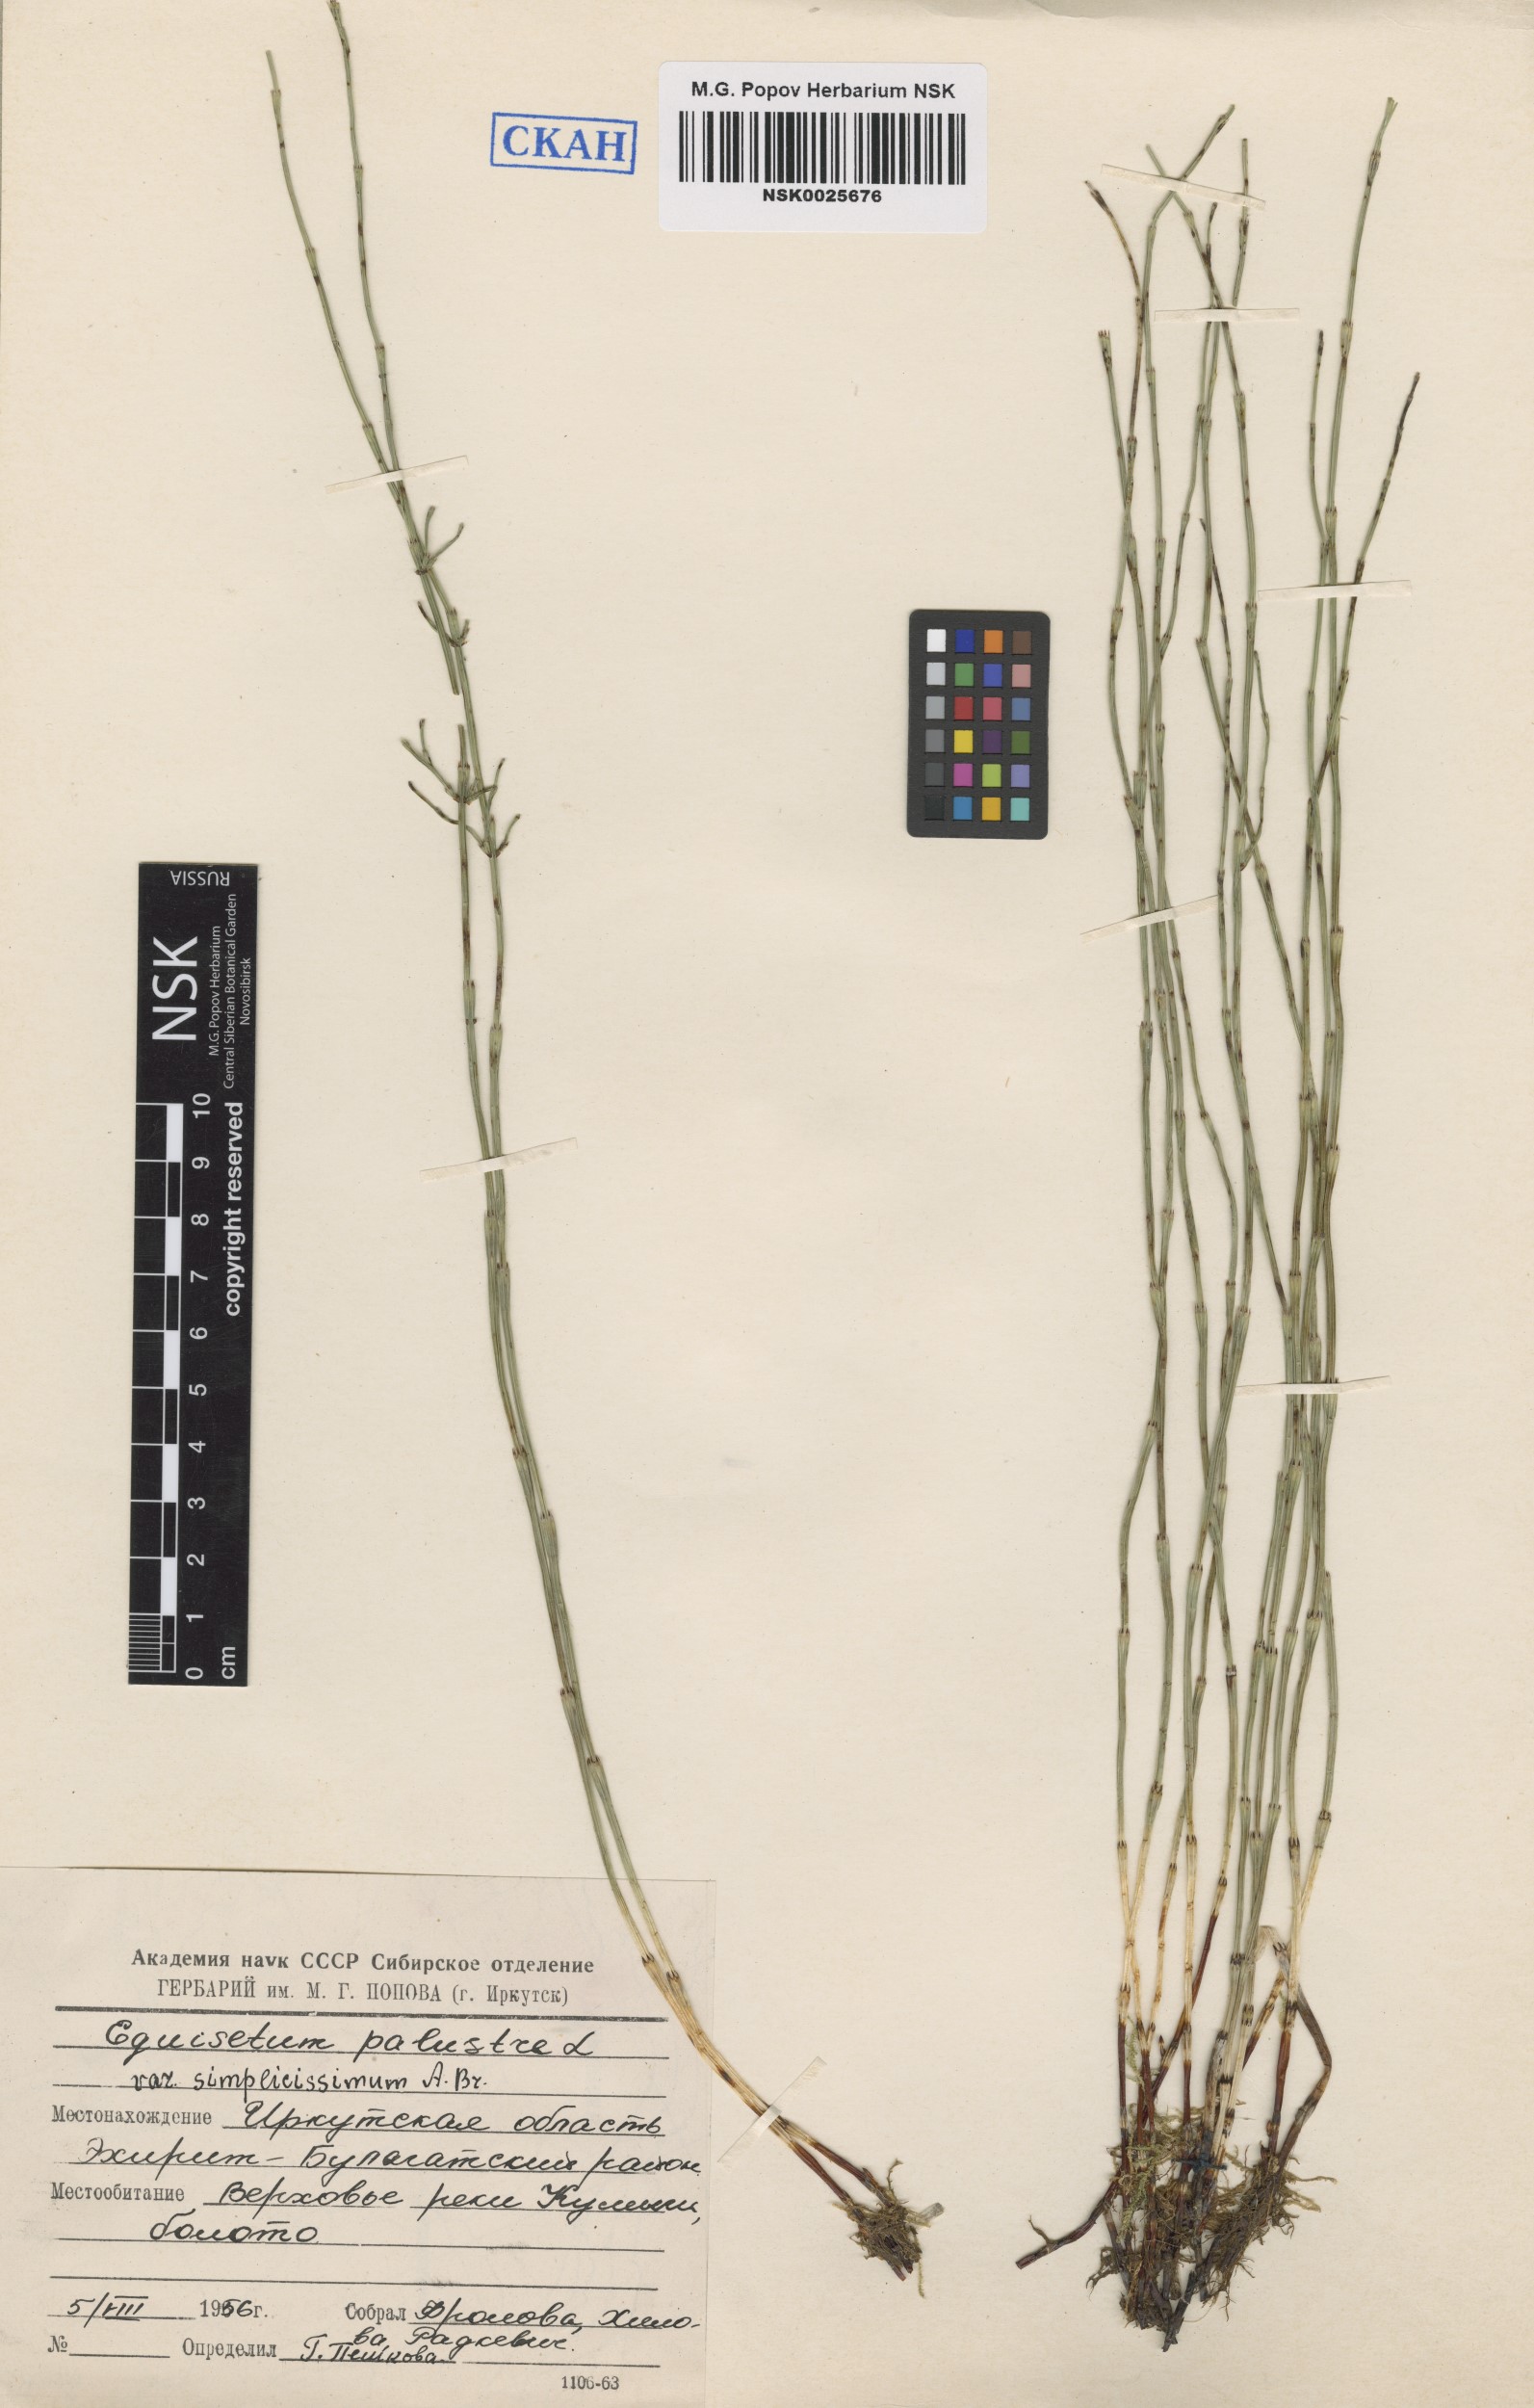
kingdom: Plantae
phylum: Tracheophyta
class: Polypodiopsida
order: Equisetales
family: Equisetaceae
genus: Equisetum
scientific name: Equisetum palustre
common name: Marsh horsetail
